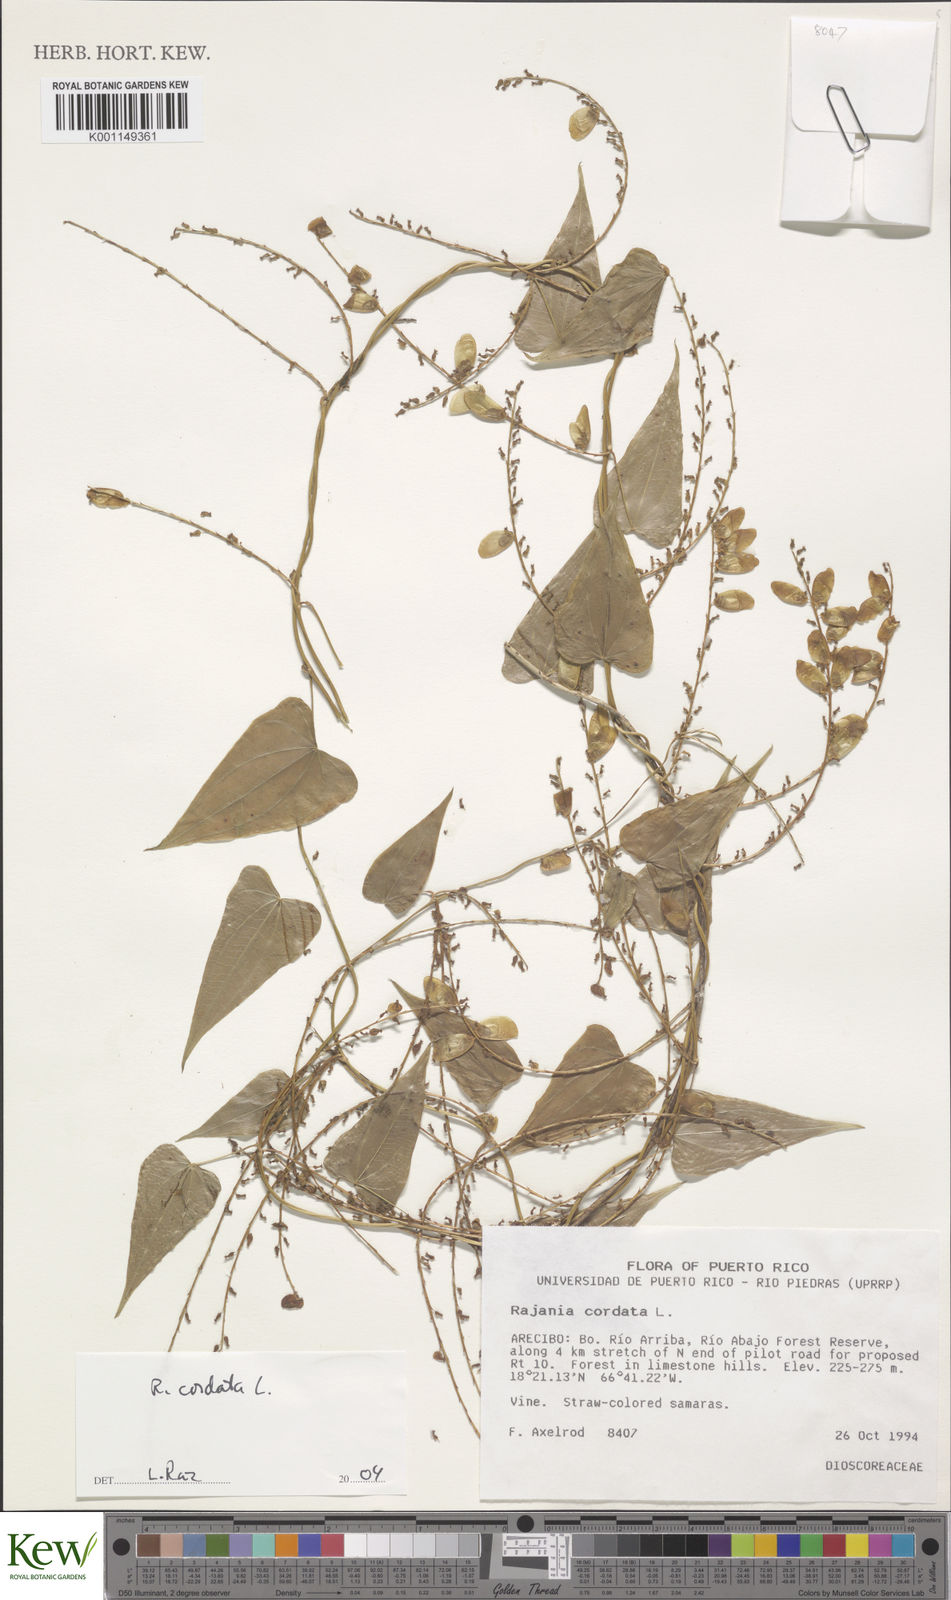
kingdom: Plantae
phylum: Tracheophyta
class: Liliopsida
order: Dioscoreales
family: Dioscoreaceae
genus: Dioscorea
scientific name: Dioscorea
